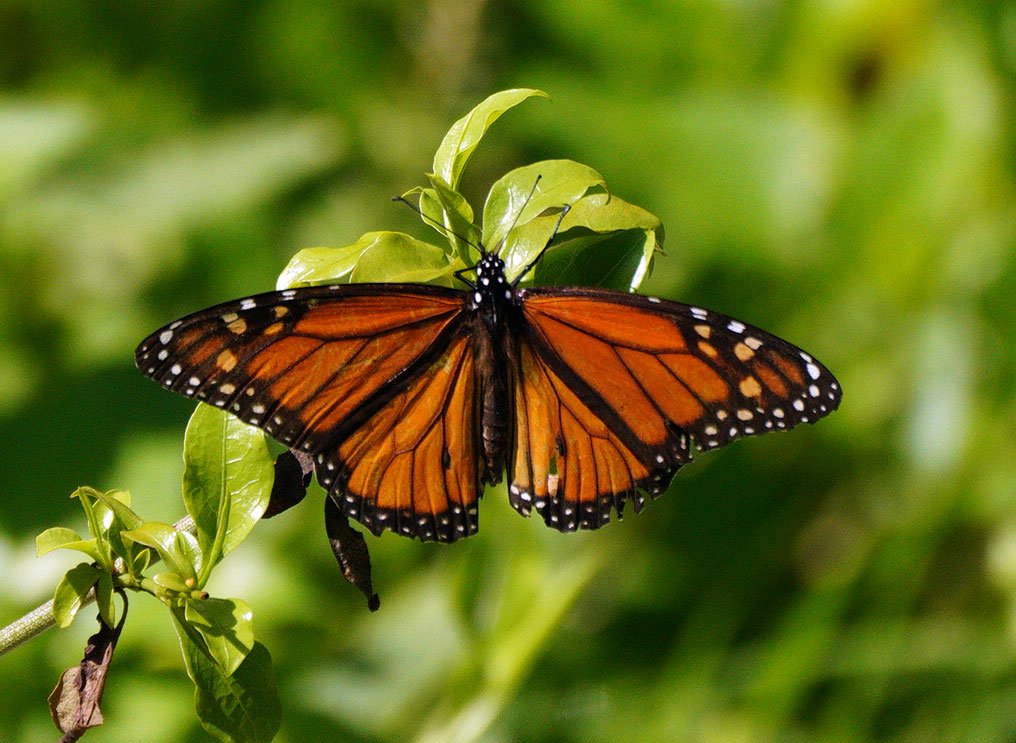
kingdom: Animalia
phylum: Arthropoda
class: Insecta
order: Lepidoptera
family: Nymphalidae
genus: Danaus
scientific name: Danaus plexippus
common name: Monarch
